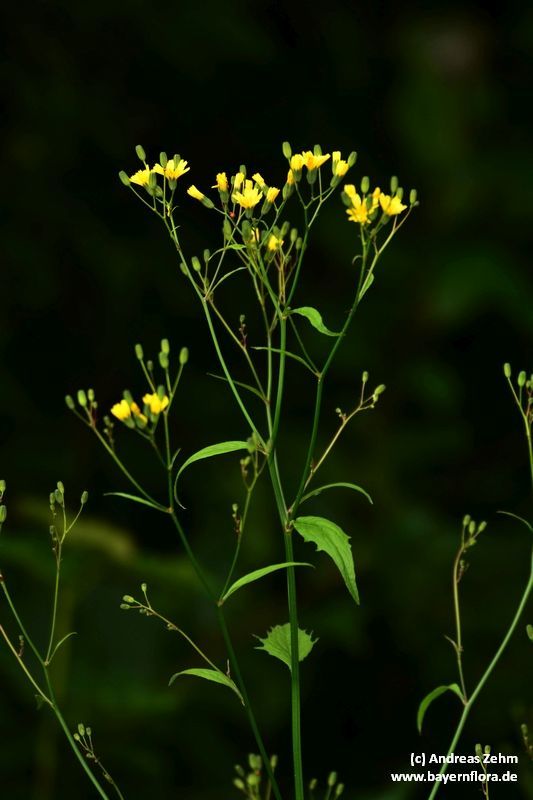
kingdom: Plantae
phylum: Tracheophyta
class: Magnoliopsida
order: Asterales
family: Asteraceae
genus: Lapsana
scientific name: Lapsana communis
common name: Nipplewort
